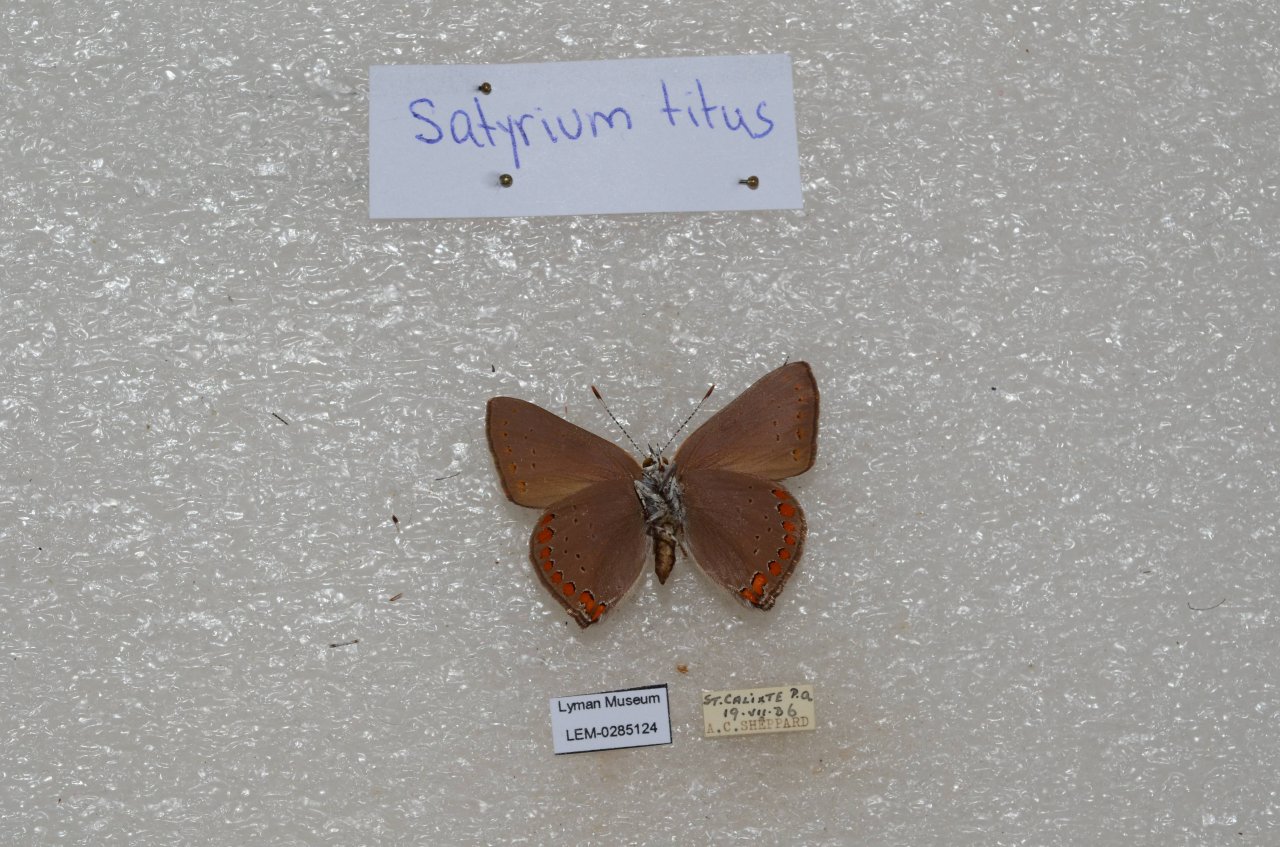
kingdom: Animalia
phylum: Arthropoda
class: Insecta
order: Lepidoptera
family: Lycaenidae
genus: Harkenclenus
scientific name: Harkenclenus titus
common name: Coral Hairstreak
